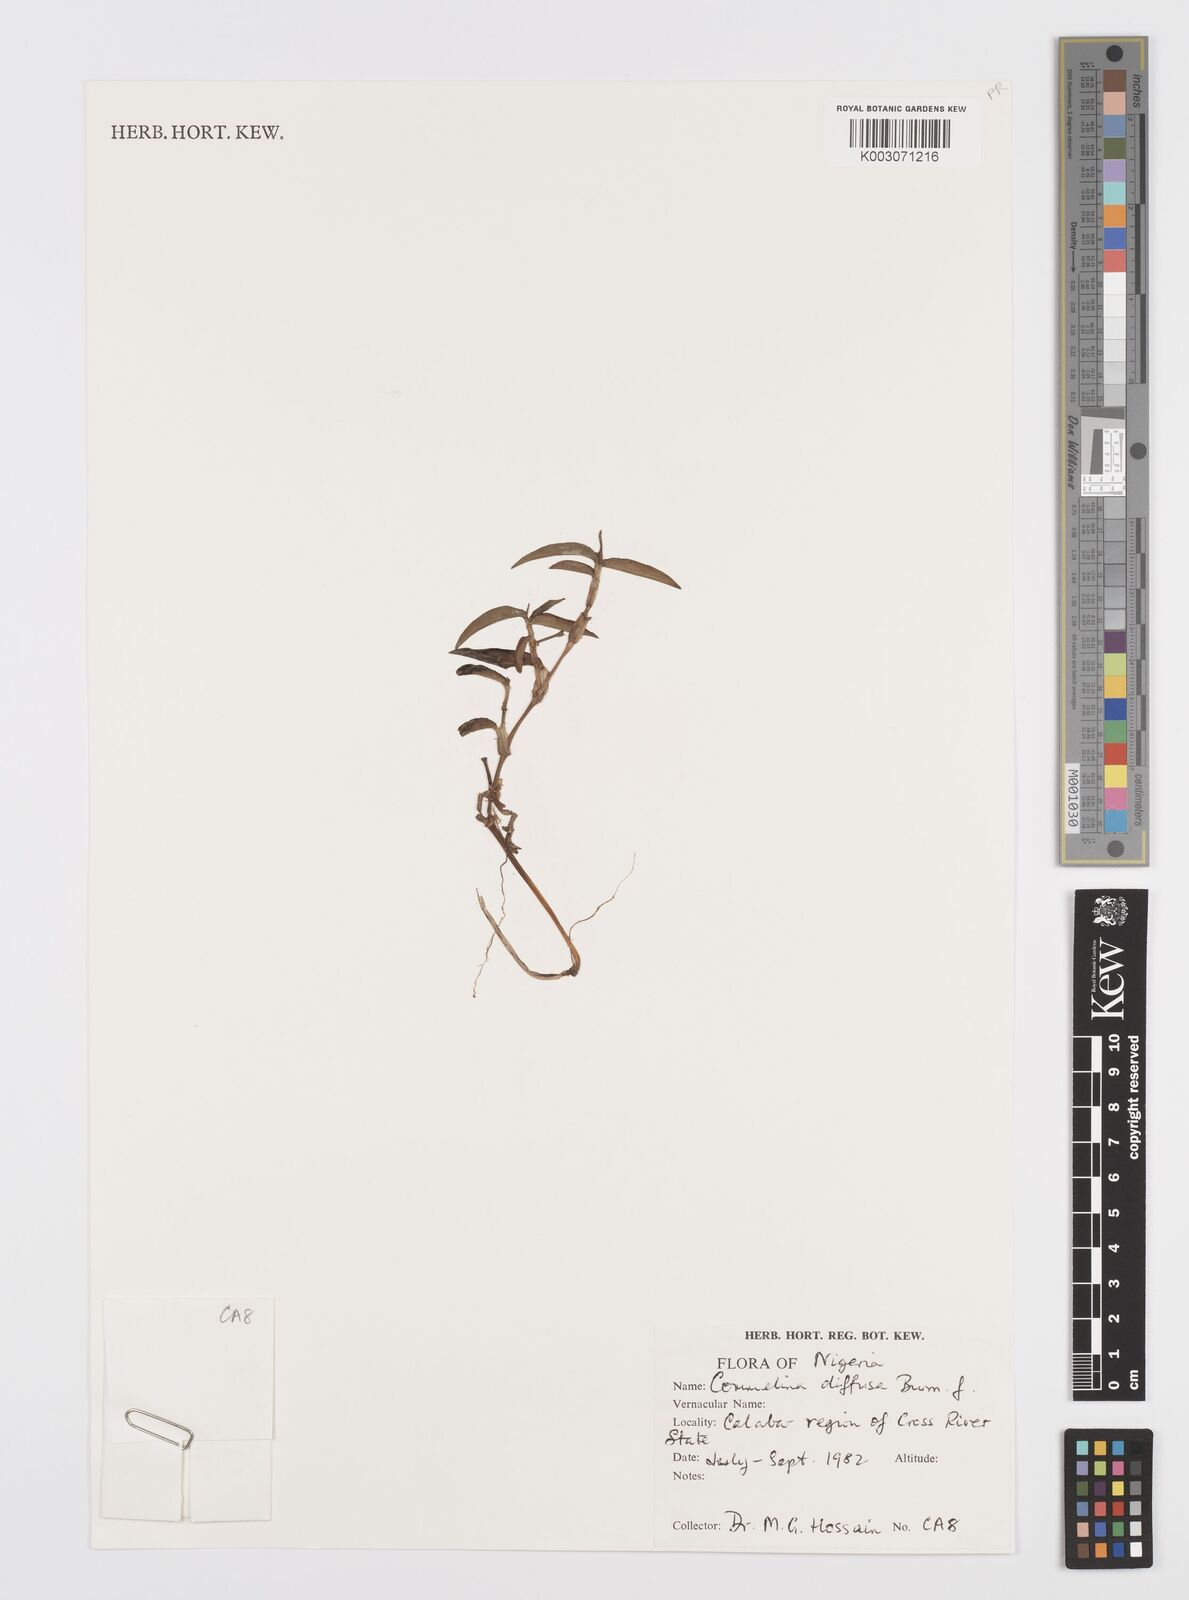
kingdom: Plantae
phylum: Tracheophyta
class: Liliopsida
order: Commelinales
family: Commelinaceae
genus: Commelina
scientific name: Commelina diffusa
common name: Climbing dayflower
